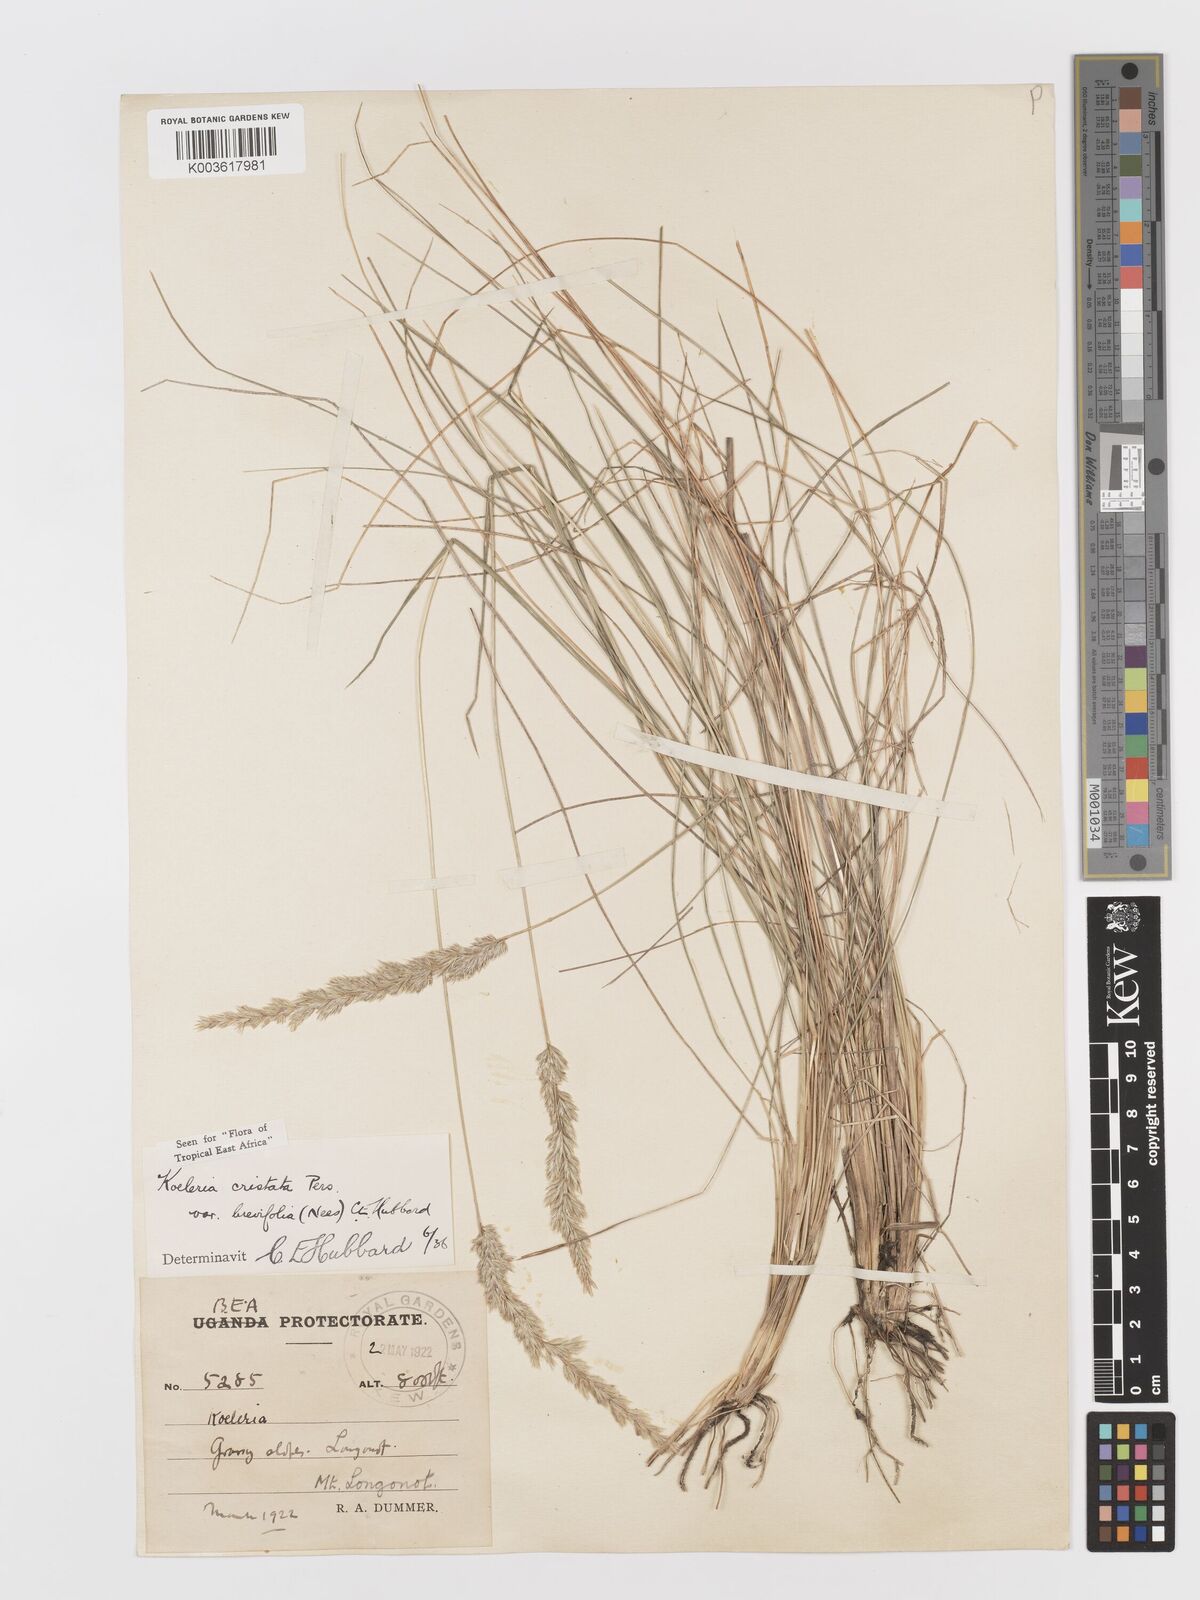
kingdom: Plantae
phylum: Tracheophyta
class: Liliopsida
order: Poales
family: Poaceae
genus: Koeleria
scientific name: Koeleria capensis
